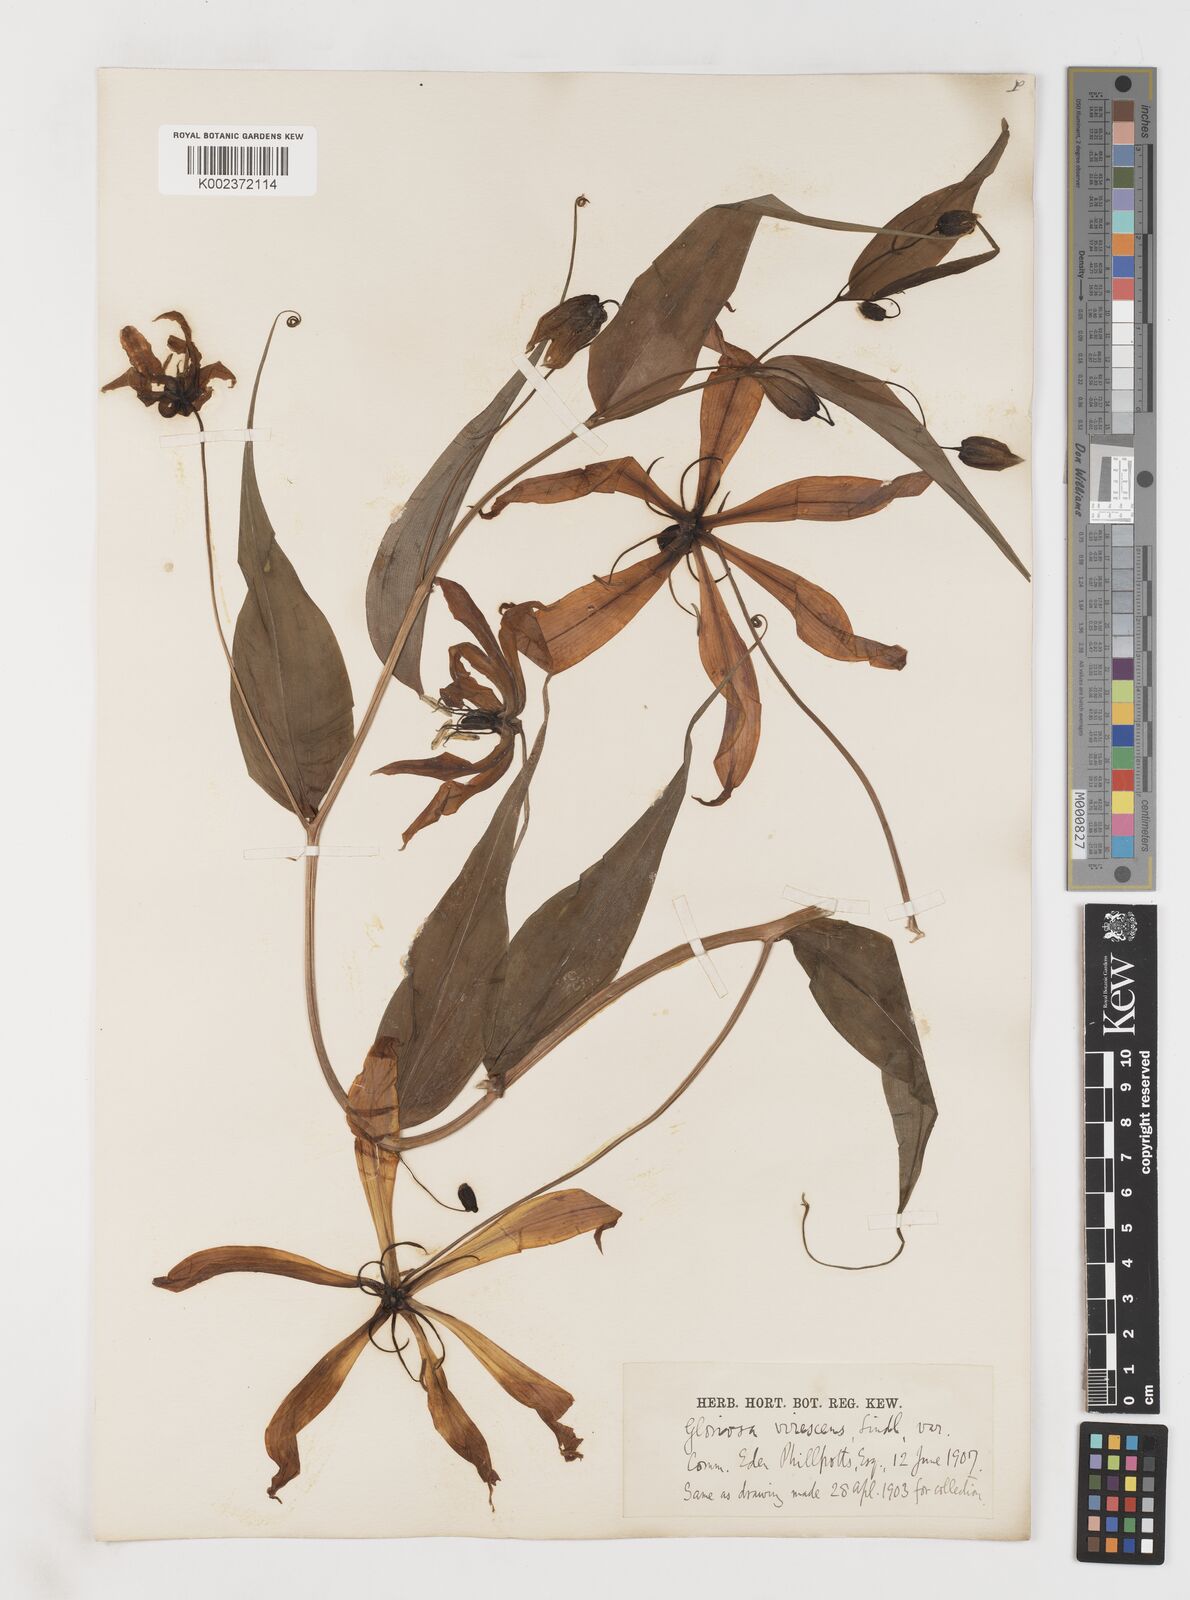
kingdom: Plantae
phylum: Tracheophyta
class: Liliopsida
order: Liliales
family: Colchicaceae
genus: Gloriosa
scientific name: Gloriosa simplex
